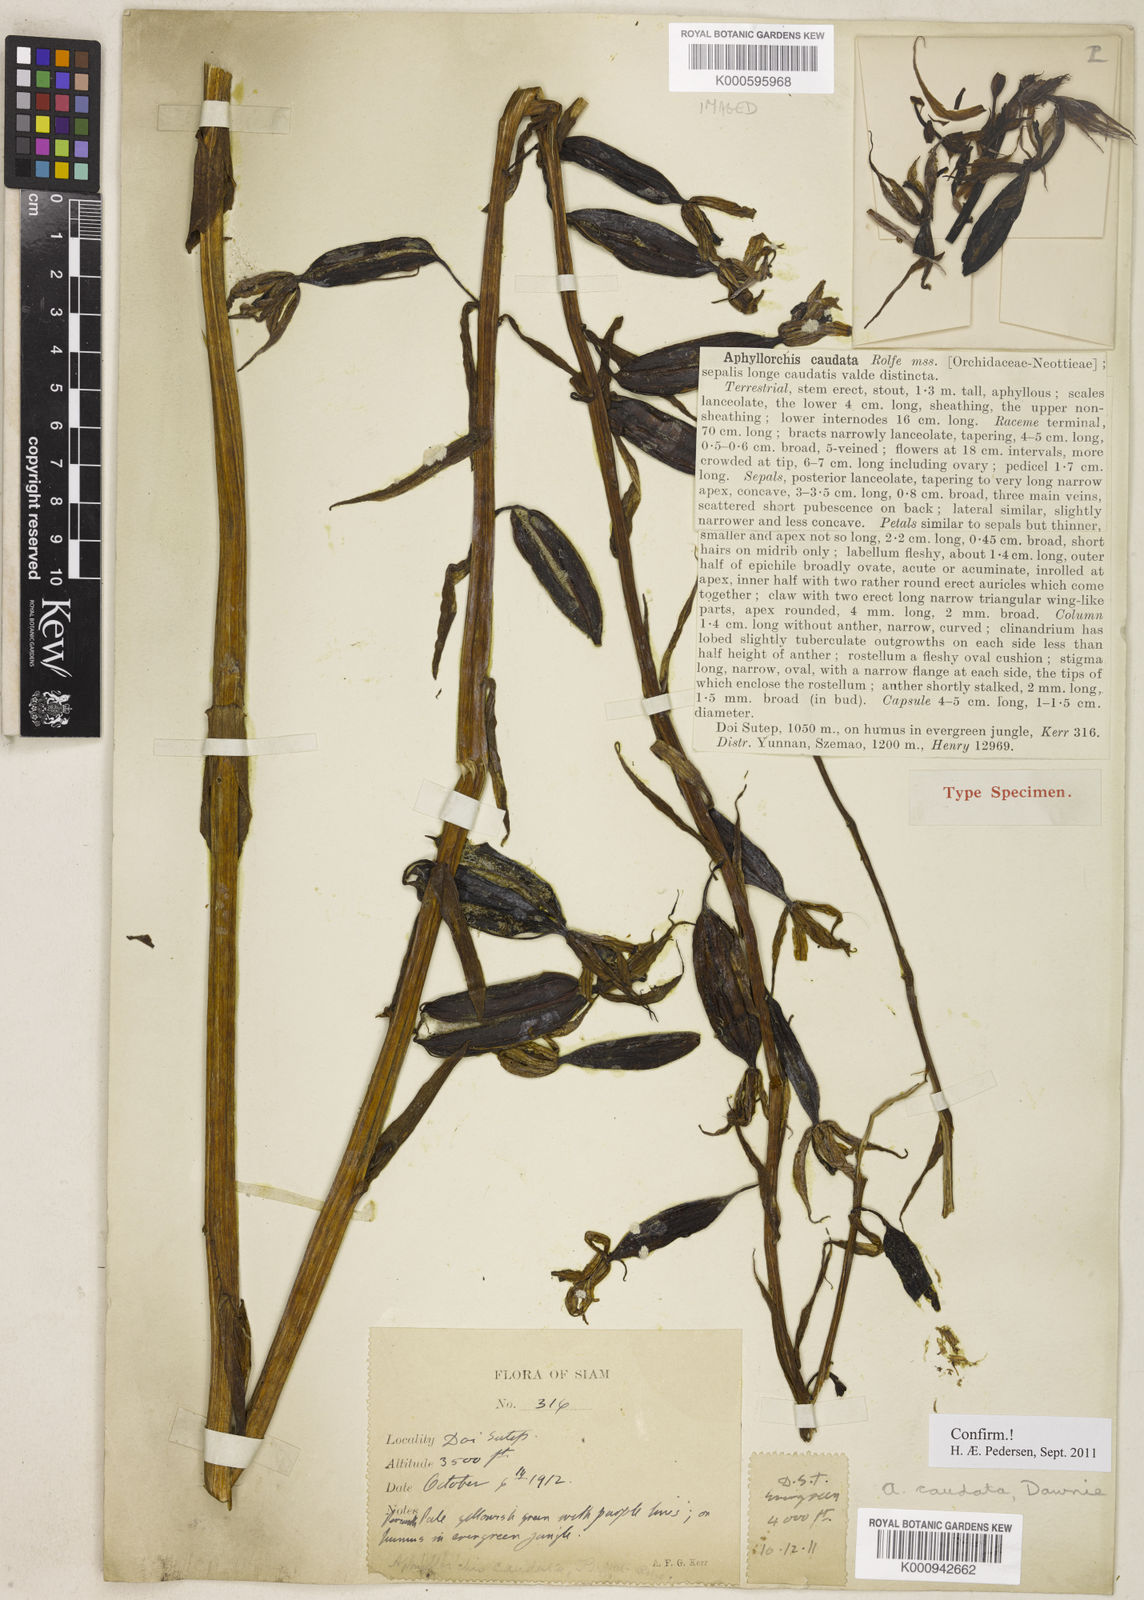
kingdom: Plantae
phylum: Tracheophyta
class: Liliopsida
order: Asparagales
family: Orchidaceae
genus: Aphyllorchis
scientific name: Aphyllorchis montana
